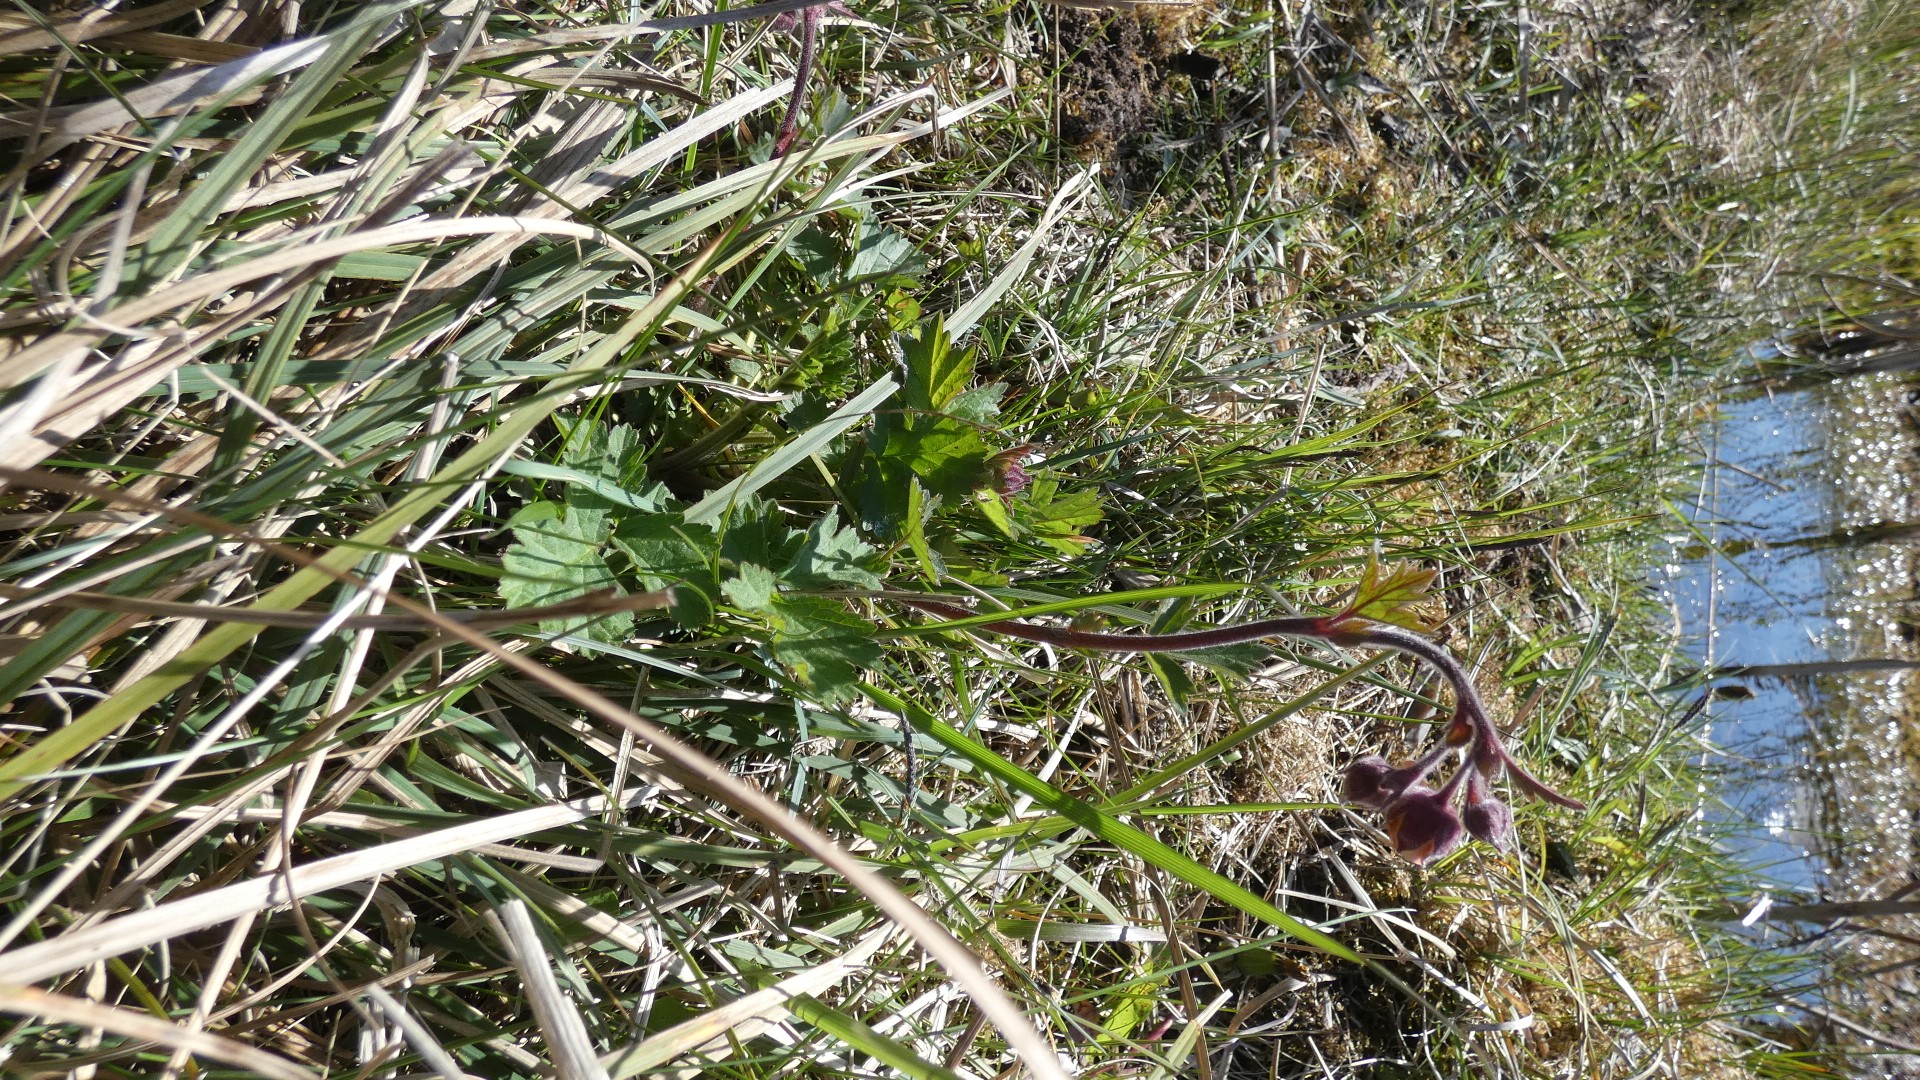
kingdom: Plantae
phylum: Tracheophyta
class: Magnoliopsida
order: Rosales
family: Rosaceae
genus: Geum
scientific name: Geum rivale
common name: Eng-nellikerod
